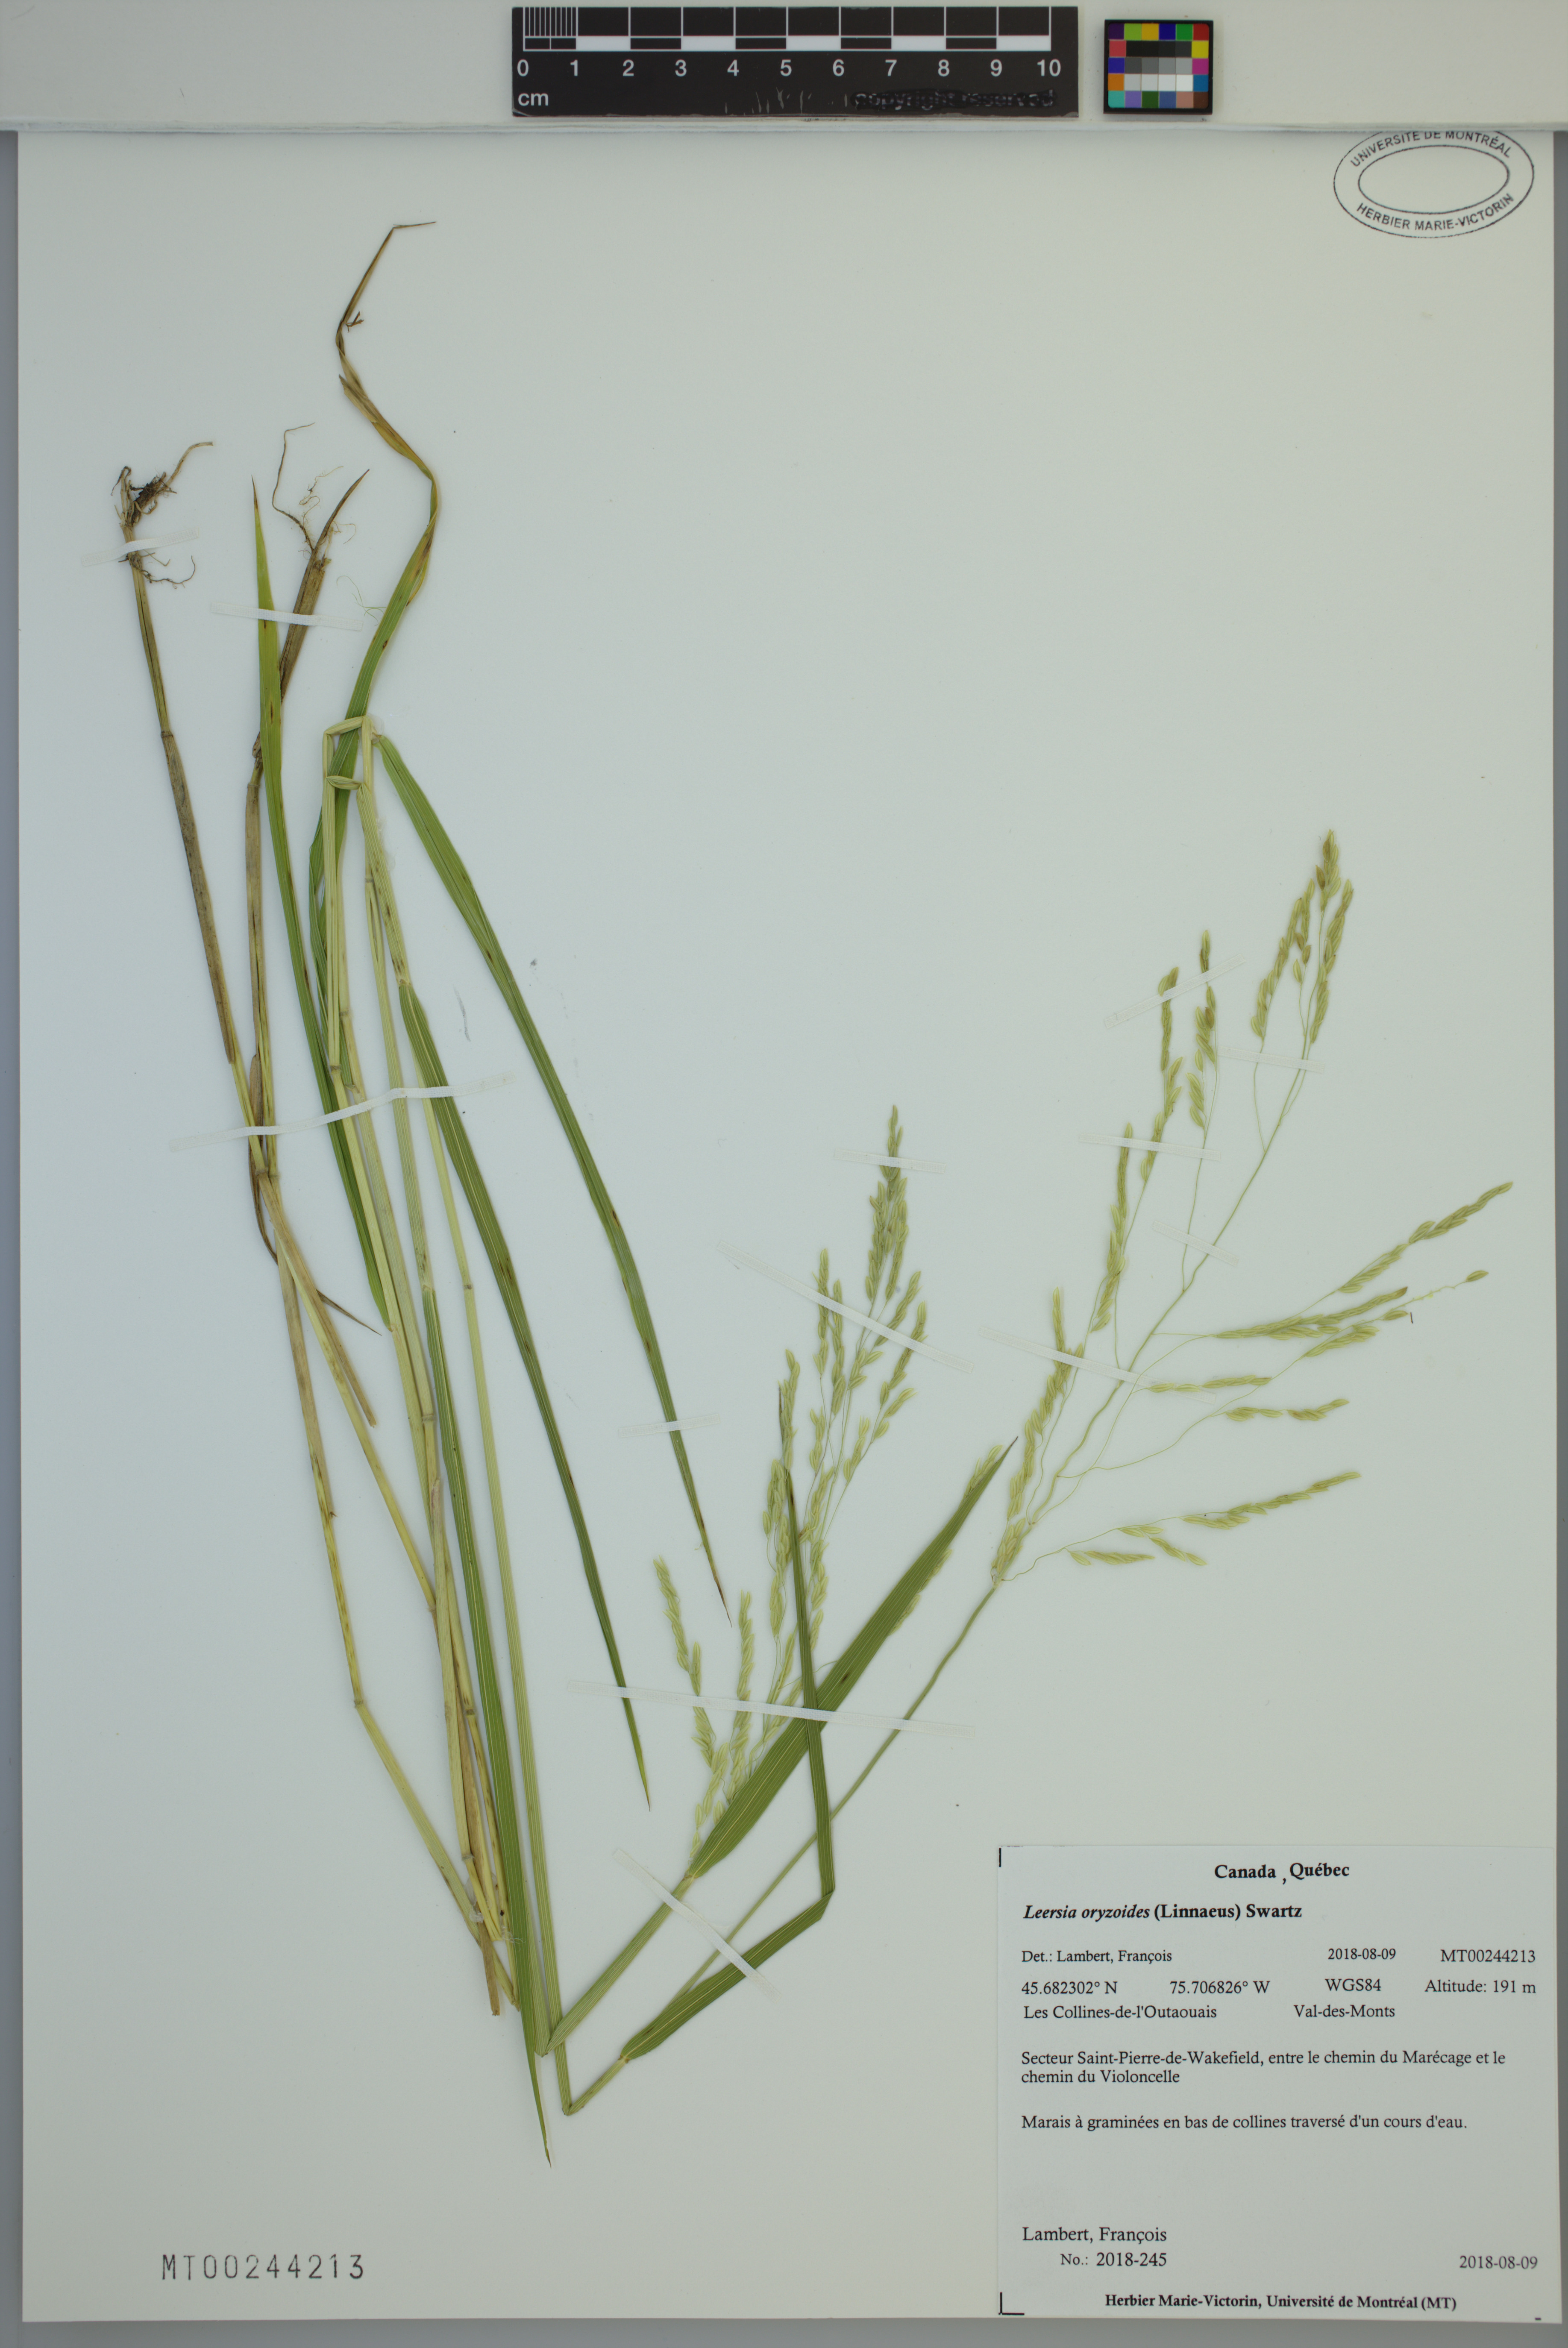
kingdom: Plantae
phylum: Tracheophyta
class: Liliopsida
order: Poales
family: Poaceae
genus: Leersia
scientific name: Leersia oryzoides
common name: Cut-grass
